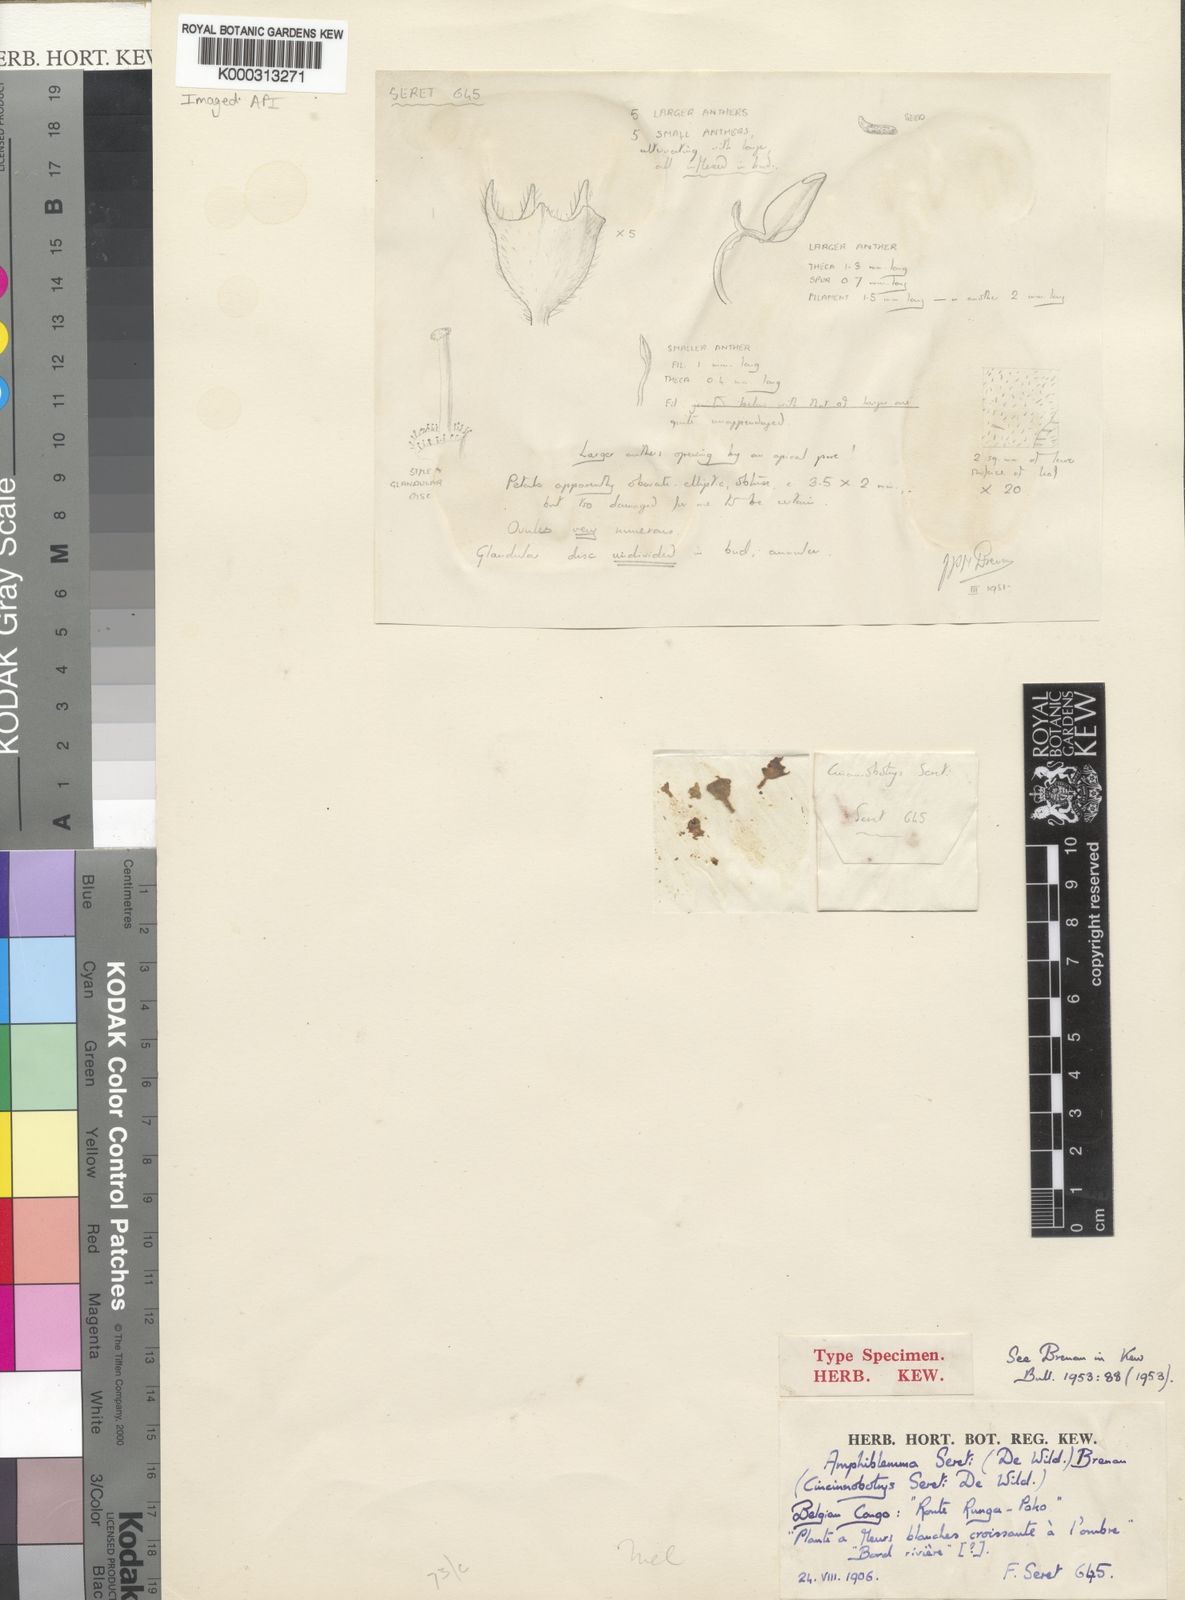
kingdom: Plantae
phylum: Tracheophyta
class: Magnoliopsida
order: Myrtales
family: Melastomataceae
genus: Cincinnobotrys
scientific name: Cincinnobotrys acaulis
